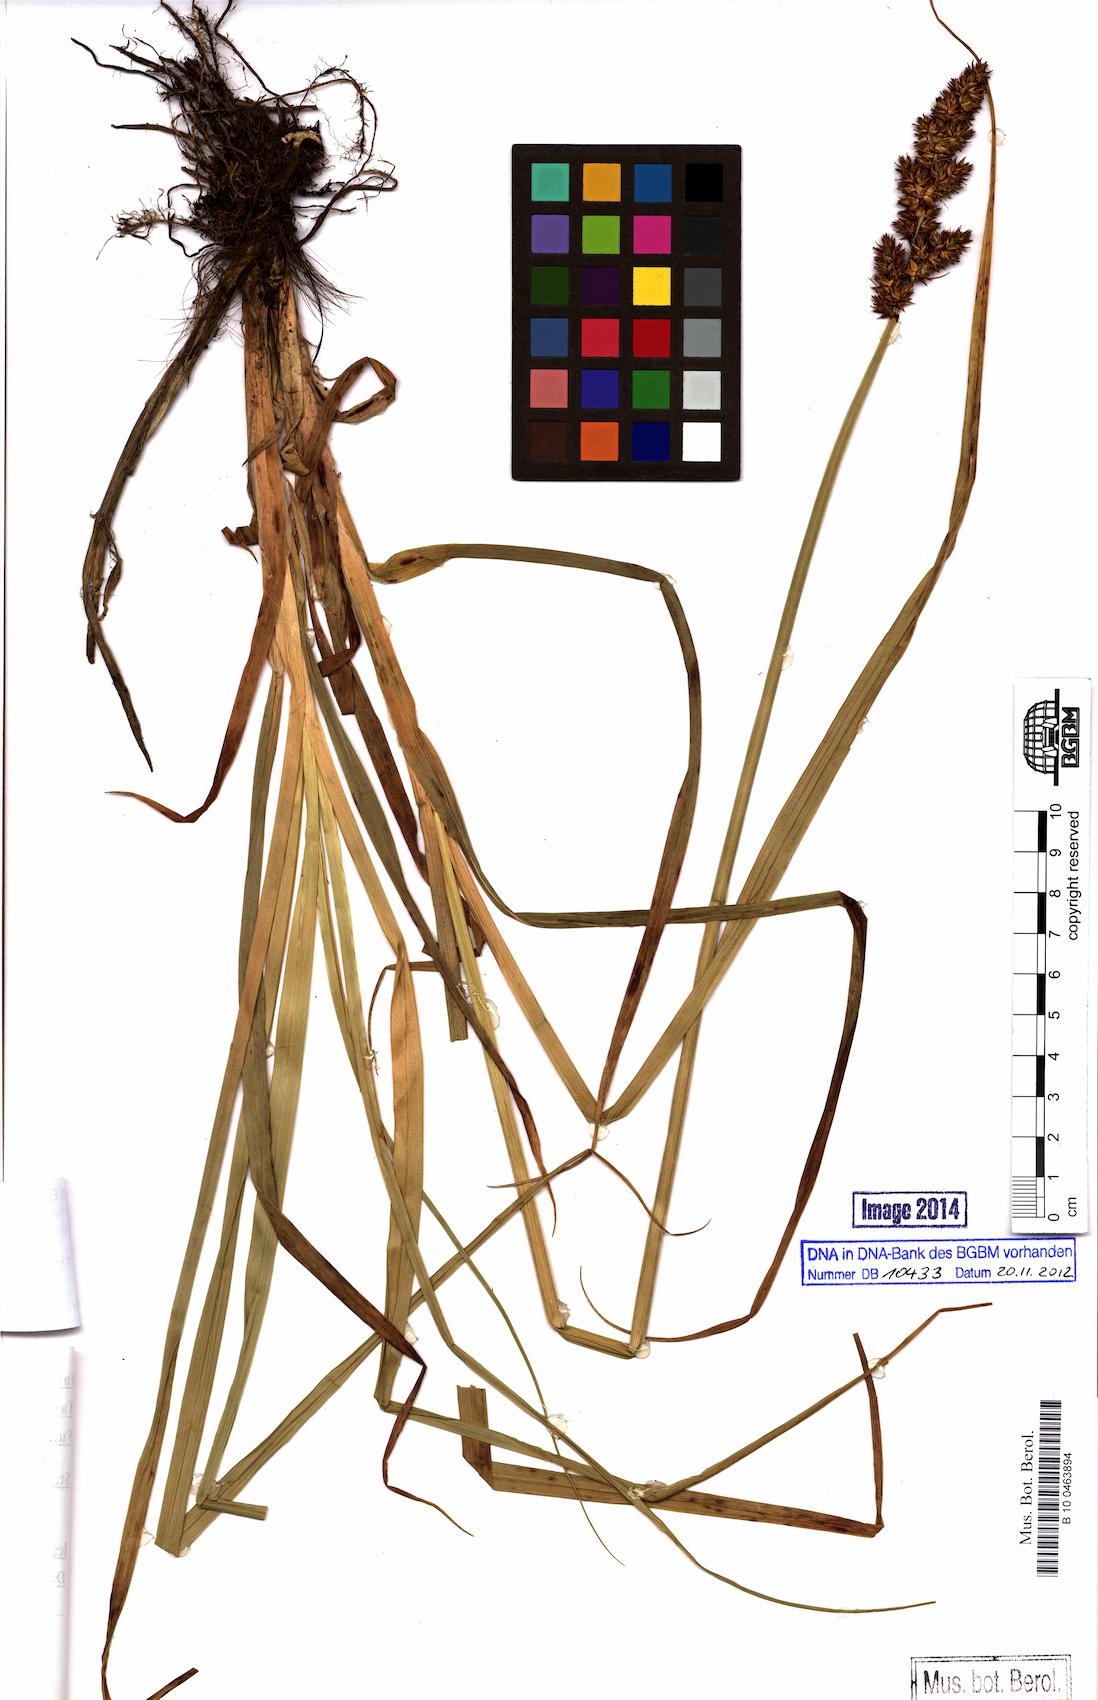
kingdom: Plantae
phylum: Tracheophyta
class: Liliopsida
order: Poales
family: Cyperaceae
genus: Carex
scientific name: Carex vulpina
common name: True fox-sedge
